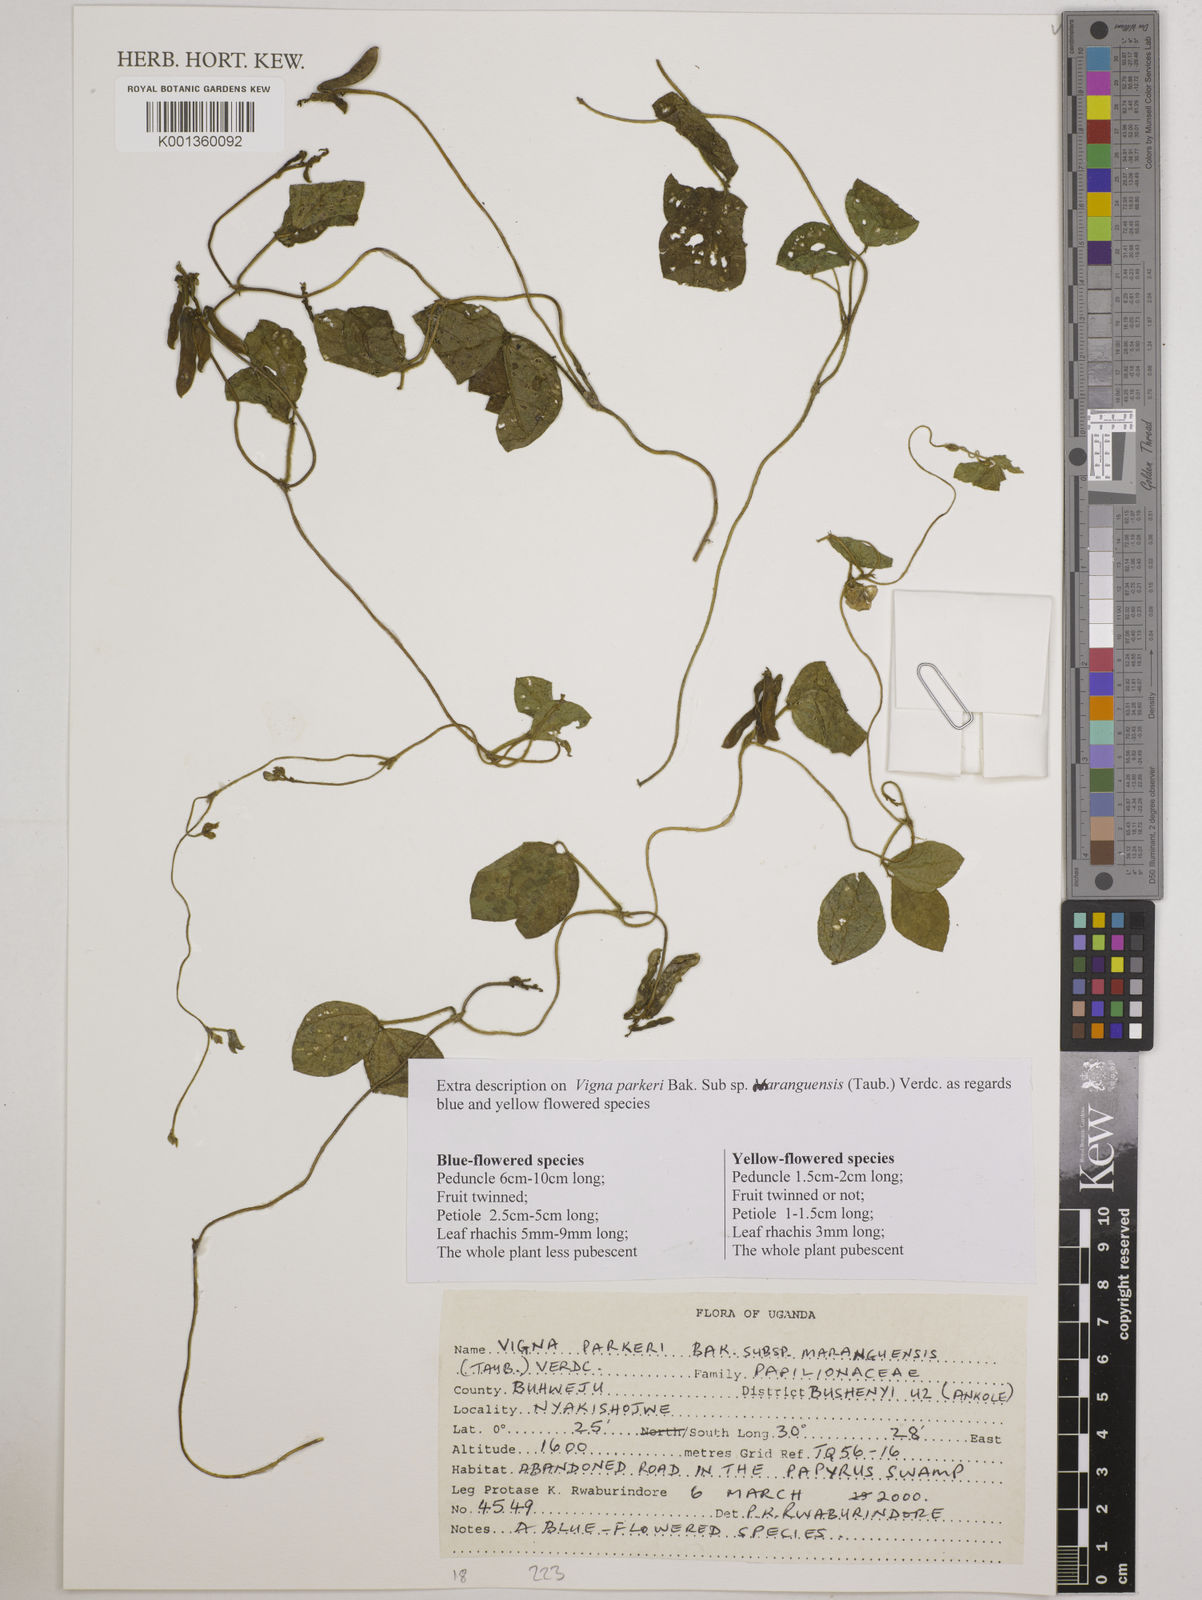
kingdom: Plantae
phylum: Tracheophyta
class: Magnoliopsida
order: Fabales
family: Fabaceae
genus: Vigna
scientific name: Vigna parkeri
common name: Creeping vigna
